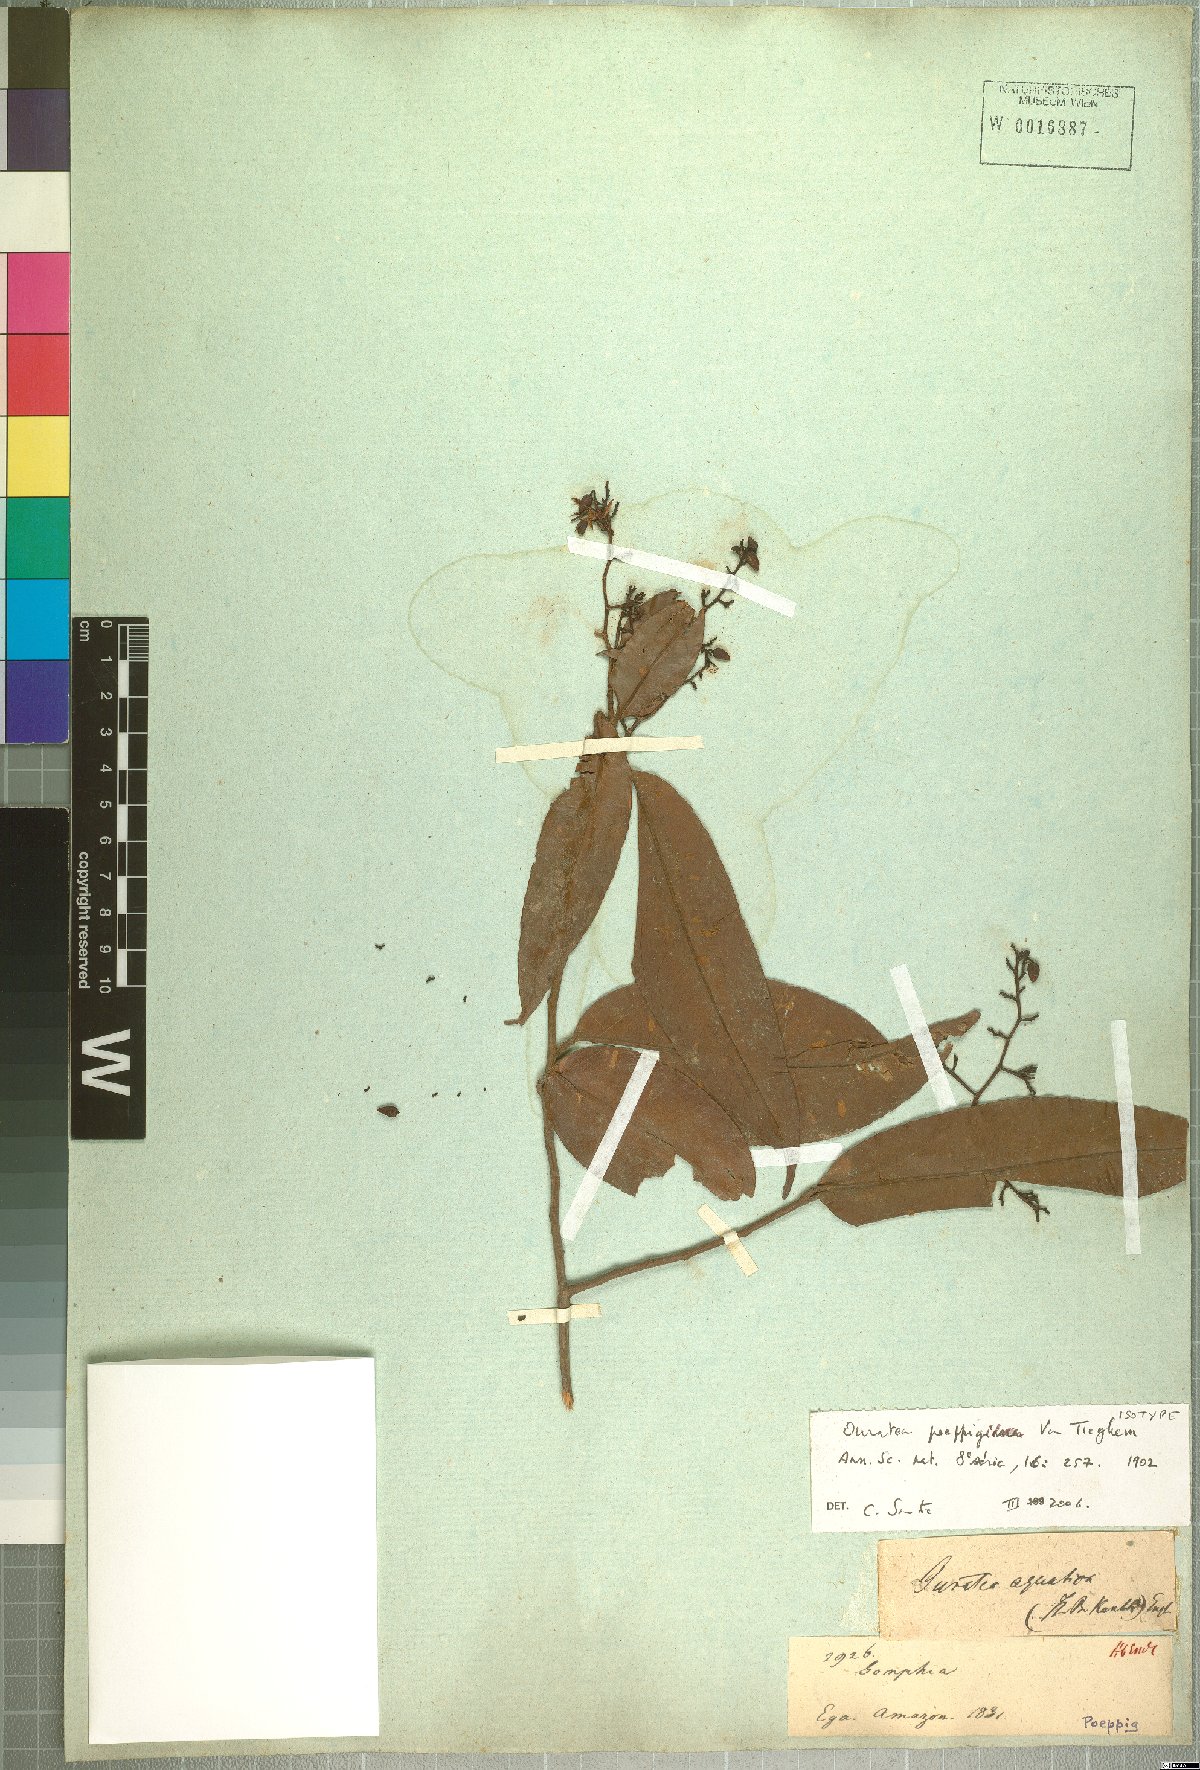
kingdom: Plantae
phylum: Tracheophyta
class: Magnoliopsida
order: Malpighiales
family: Ochnaceae
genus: Ouratea
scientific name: Ouratea poeppigii
